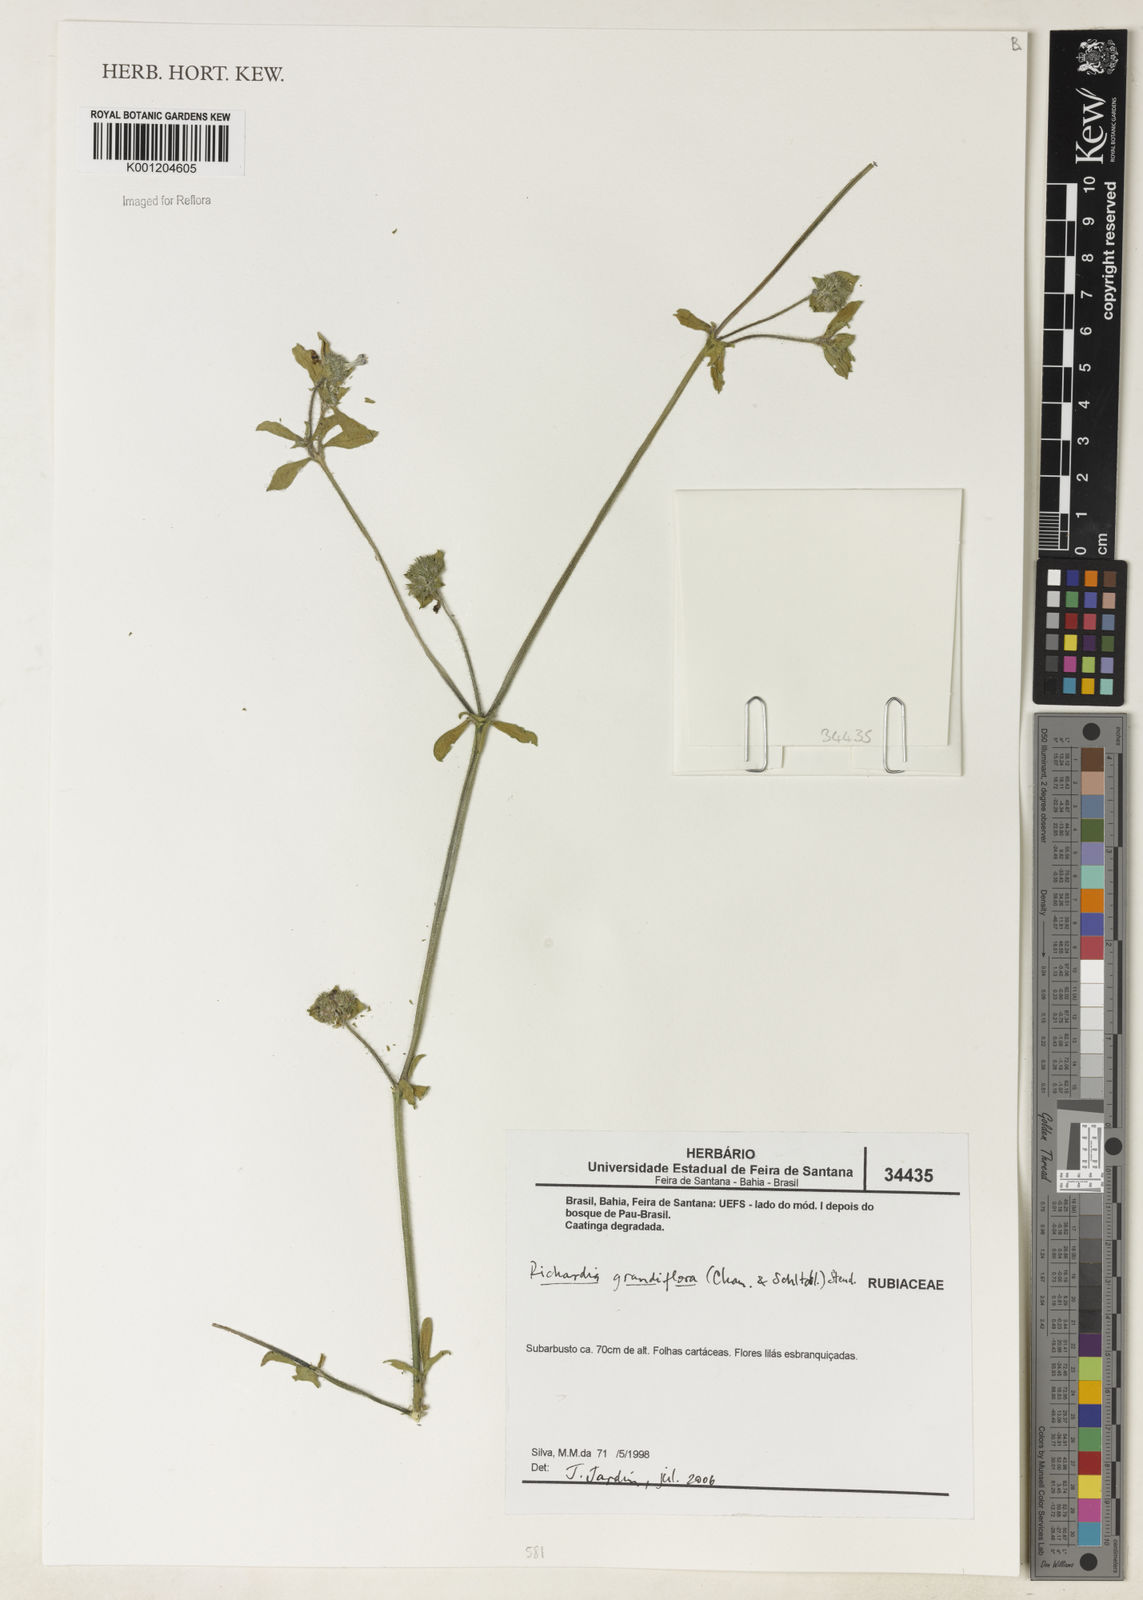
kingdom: Plantae
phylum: Tracheophyta
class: Magnoliopsida
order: Gentianales
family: Rubiaceae
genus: Richardia
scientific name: Richardia grandiflora
